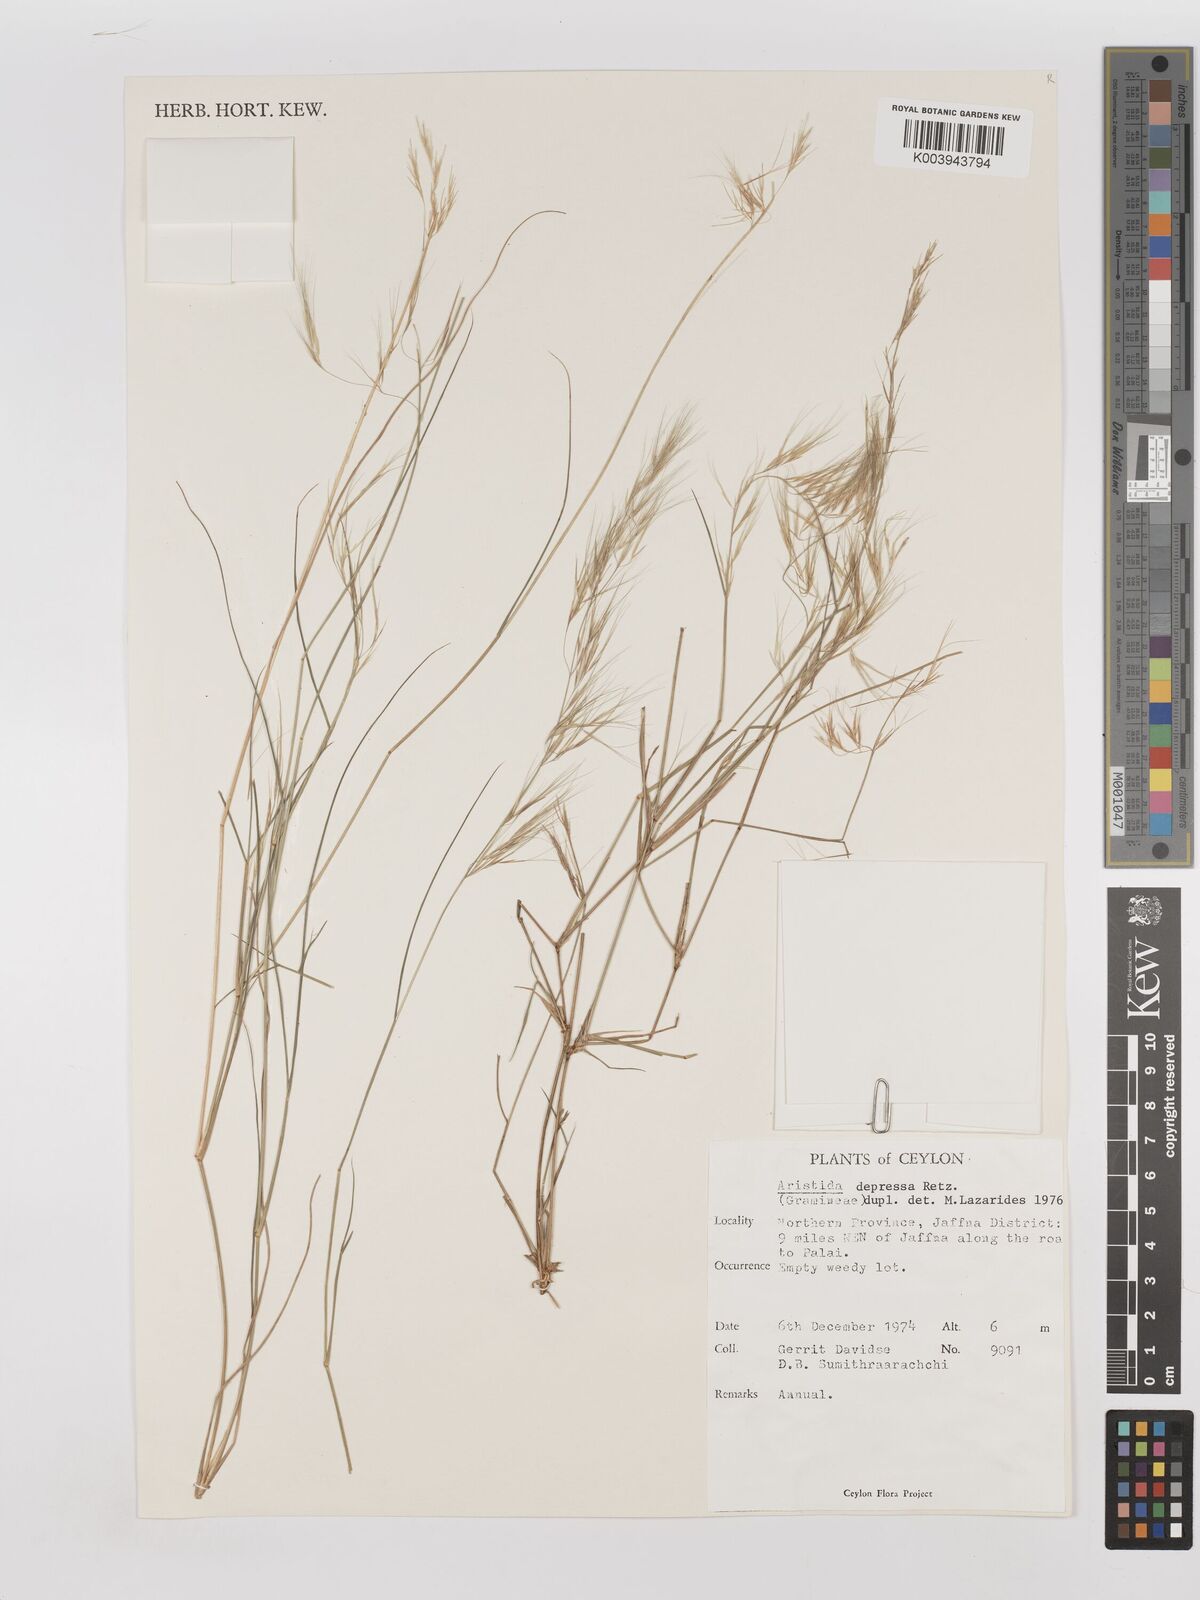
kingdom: Plantae
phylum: Tracheophyta
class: Liliopsida
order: Poales
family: Poaceae
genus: Aristida
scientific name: Aristida adscensionis
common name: Sixweeks threeawn
